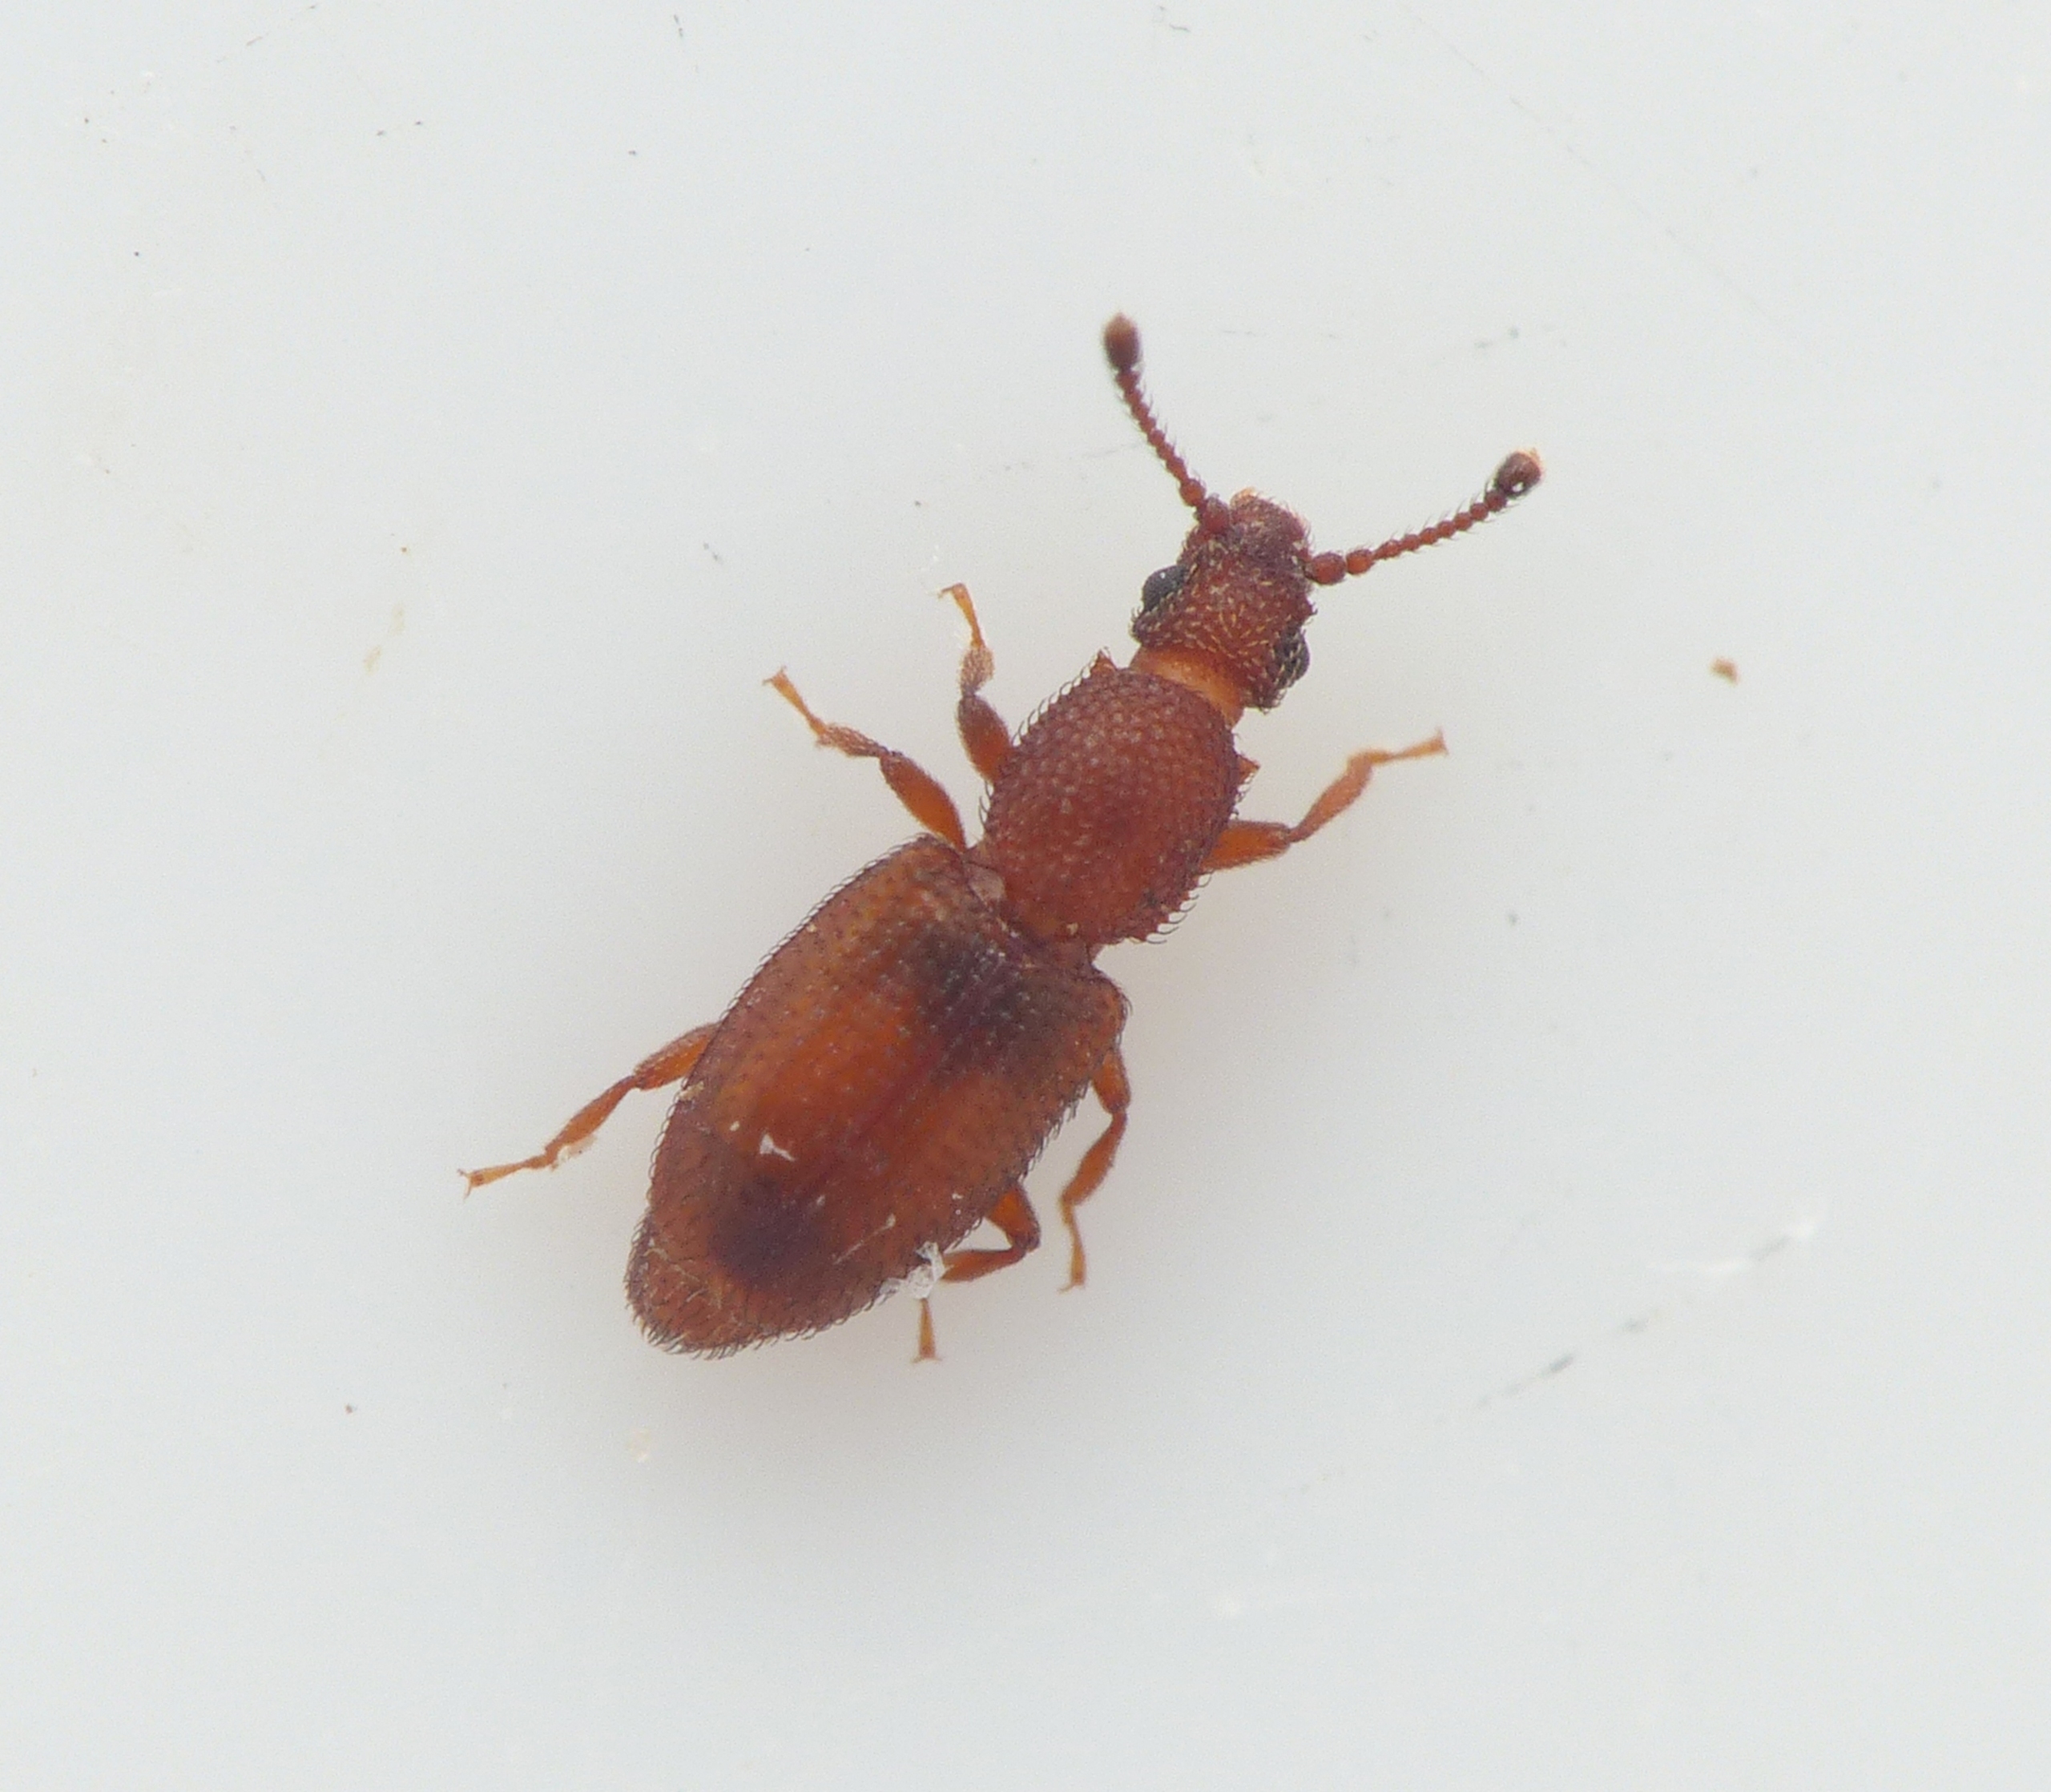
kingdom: Animalia
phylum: Arthropoda
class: Insecta
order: Coleoptera
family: Monotomidae
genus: Monotoma
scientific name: Monotoma spinicollis
